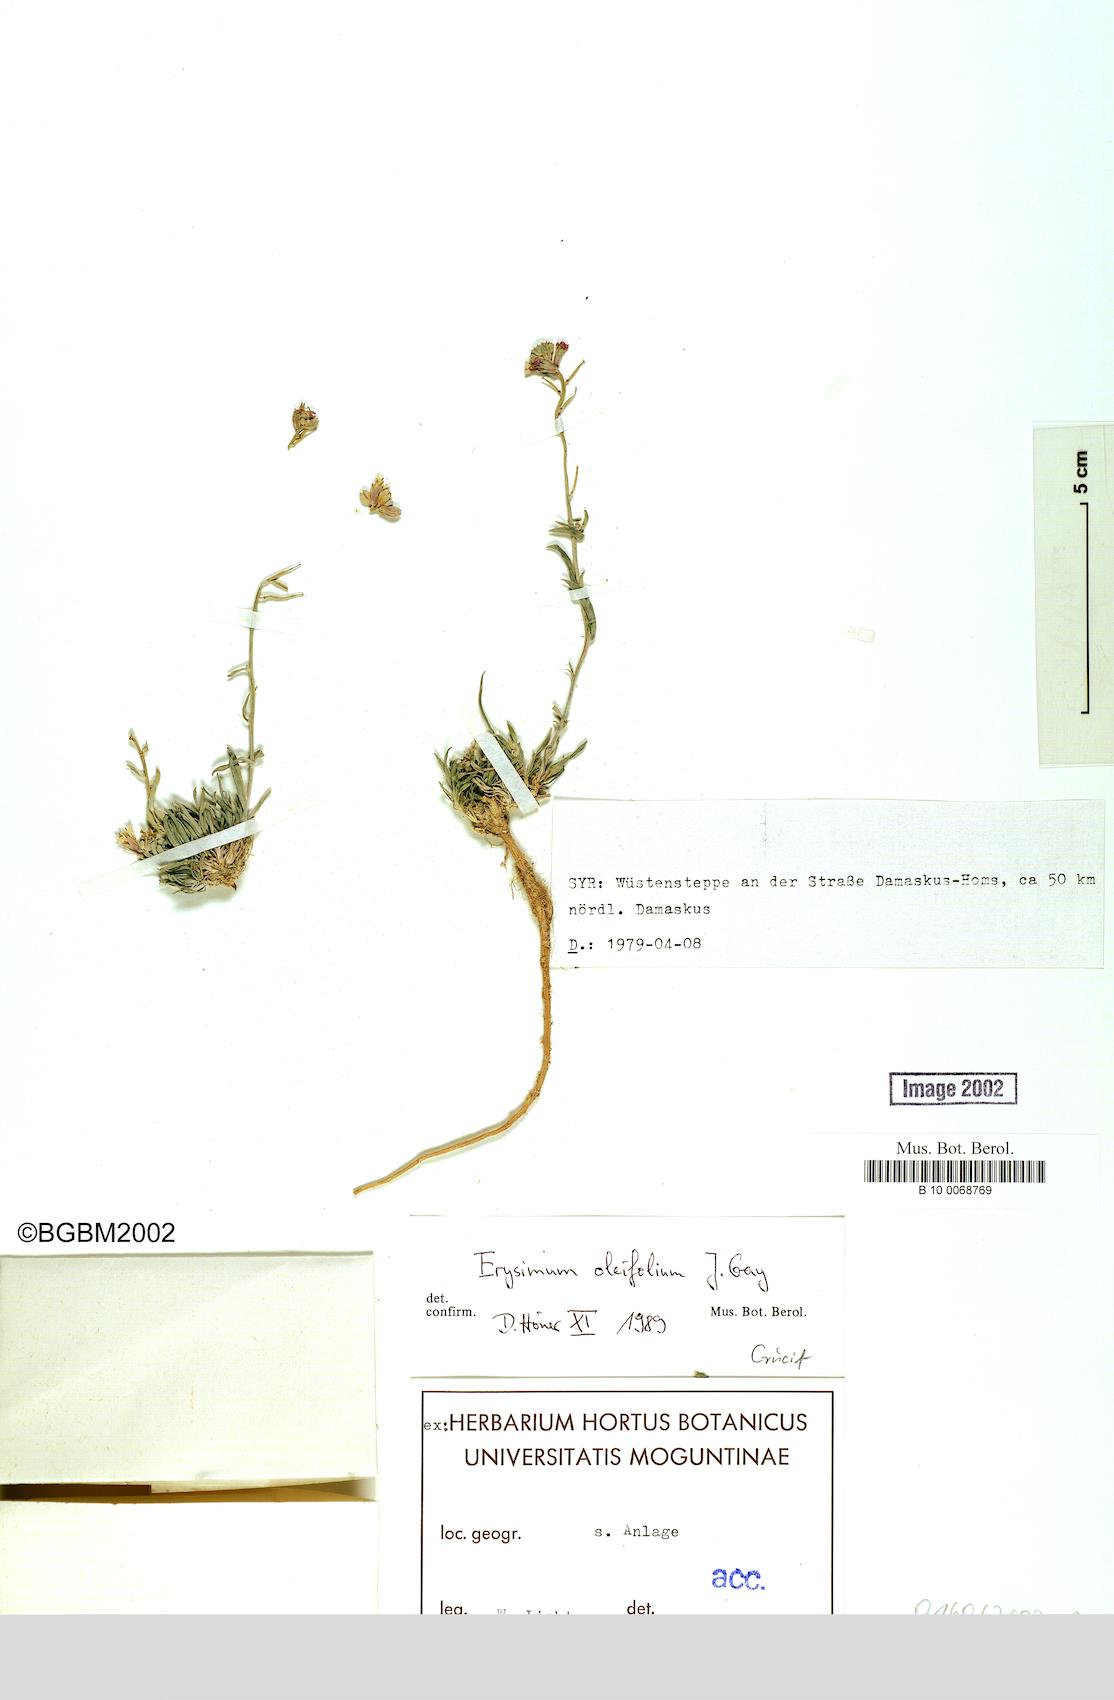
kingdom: Plantae
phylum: Tracheophyta
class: Magnoliopsida
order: Brassicales
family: Brassicaceae
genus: Erysimum
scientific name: Erysimum oleifolium
